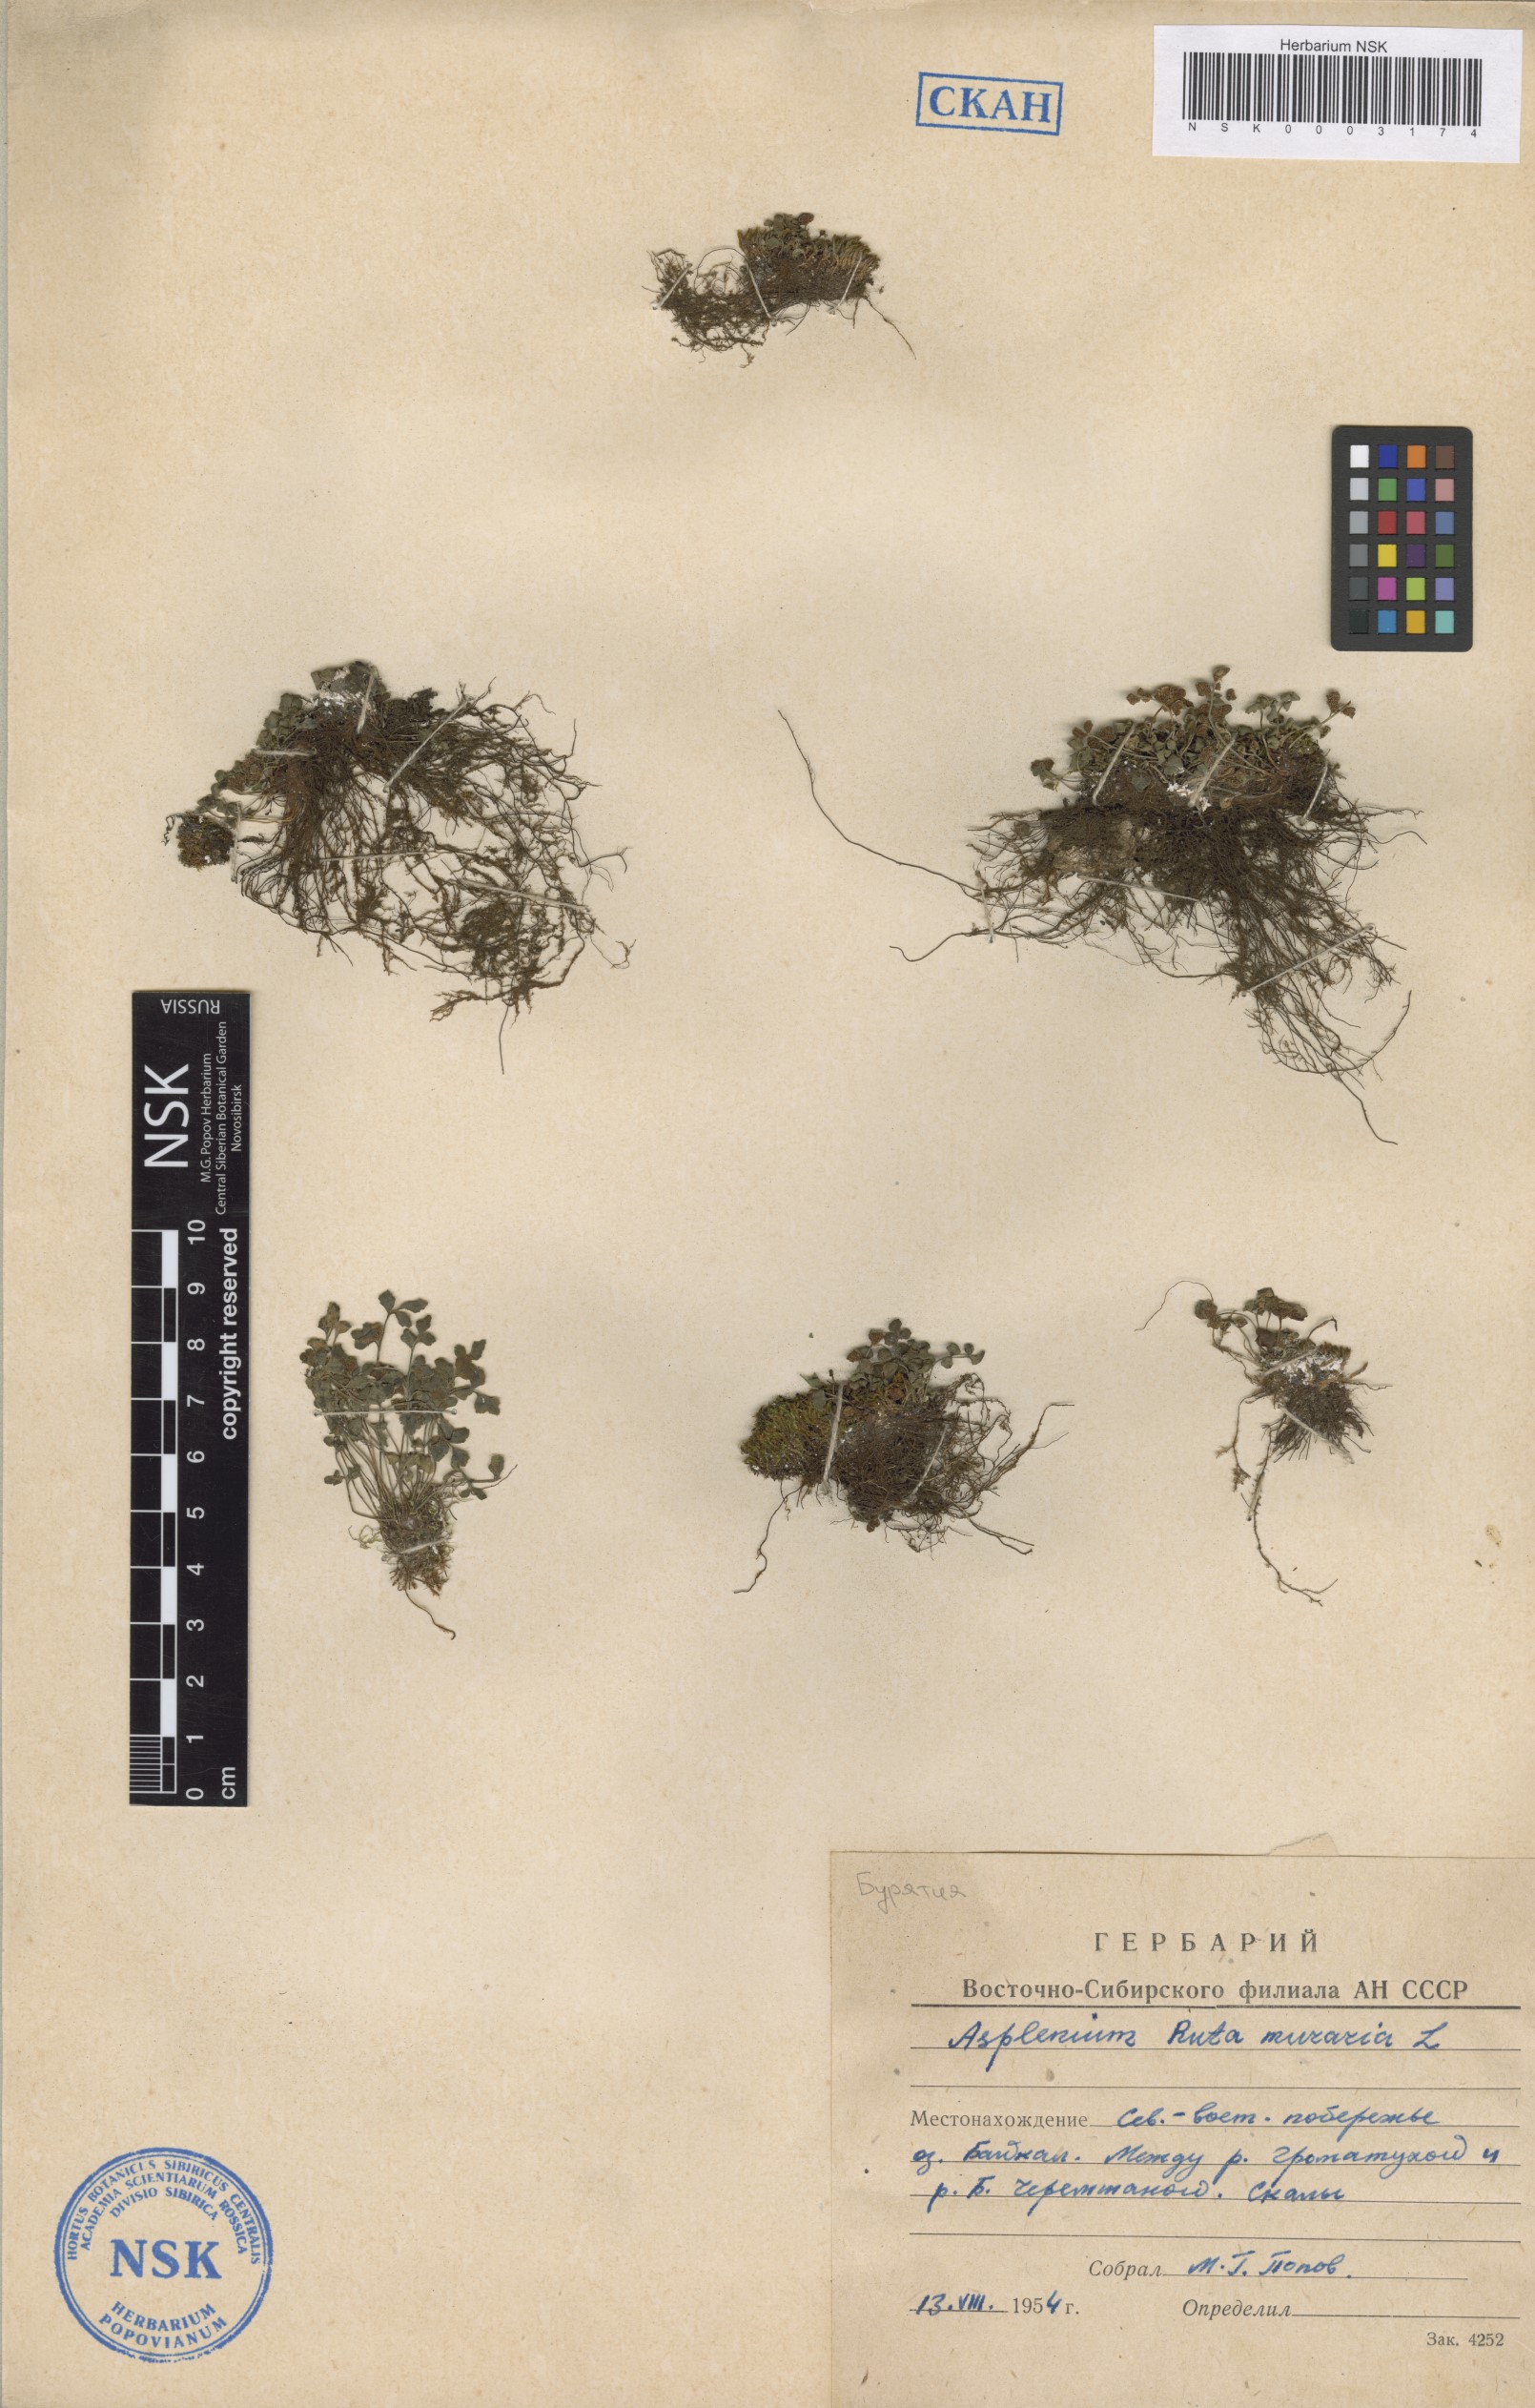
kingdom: Plantae
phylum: Tracheophyta
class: Polypodiopsida
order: Polypodiales
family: Aspleniaceae
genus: Asplenium
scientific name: Asplenium ruta-muraria
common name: Wall-rue
